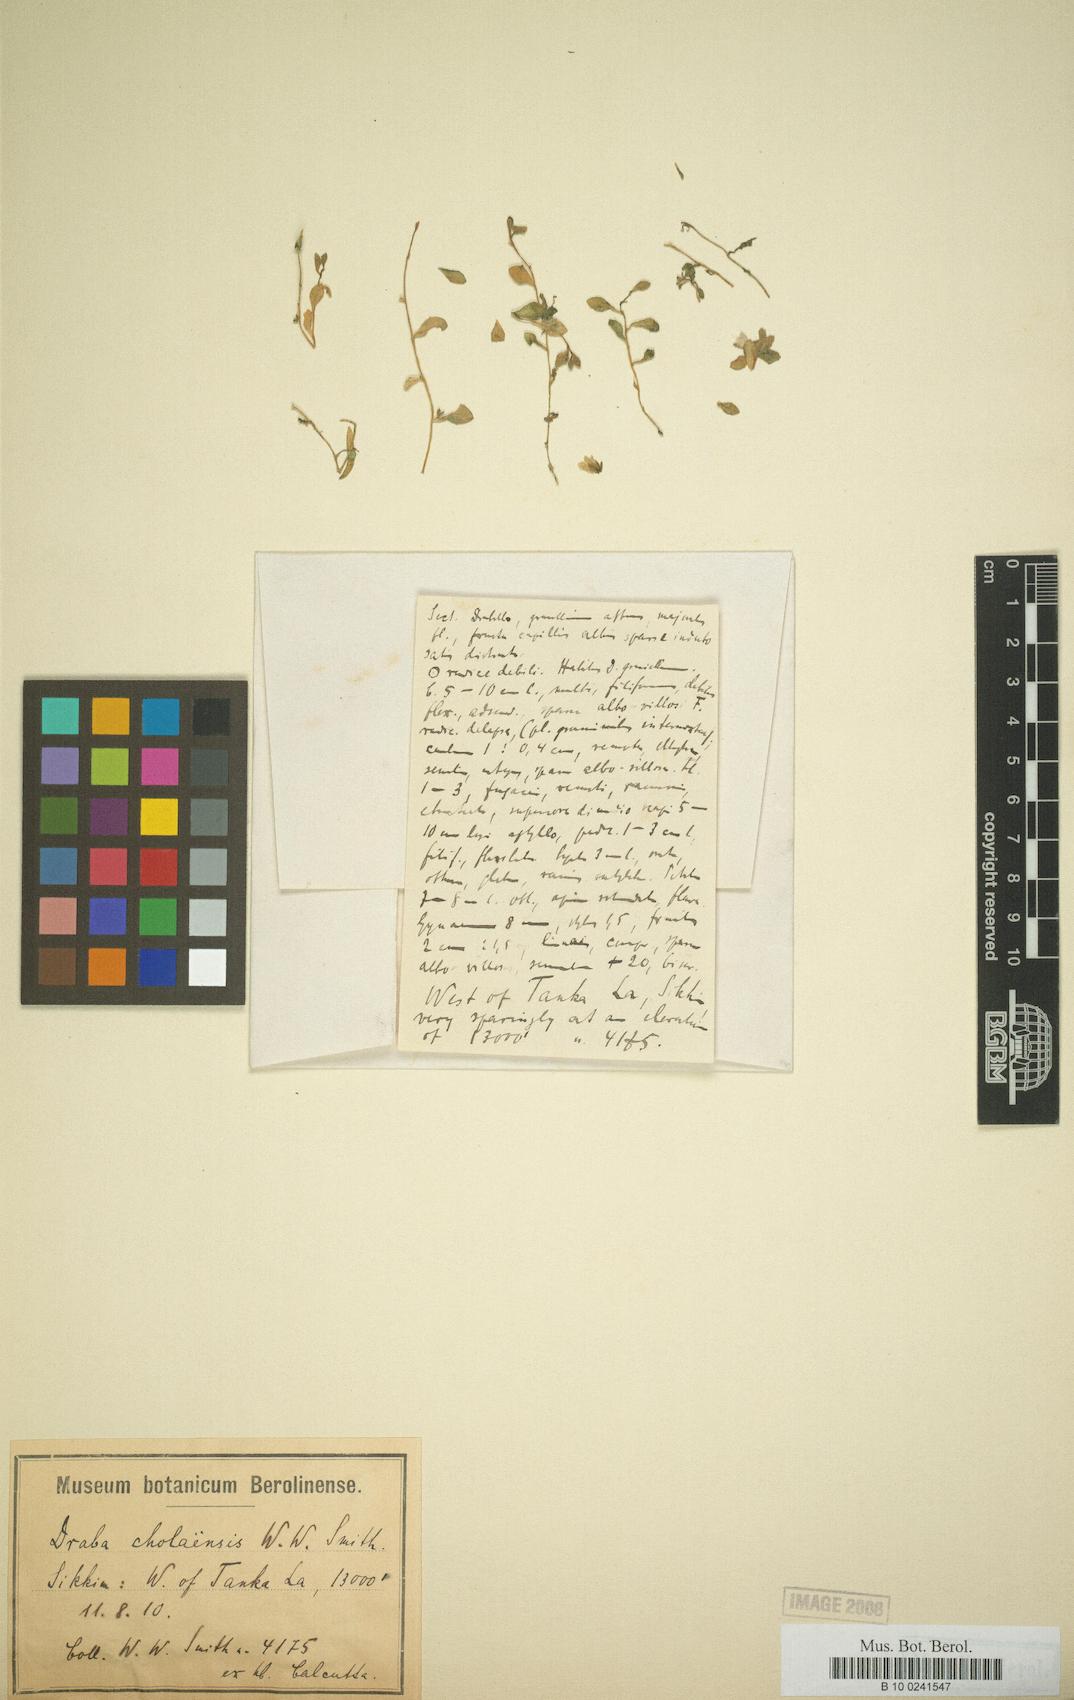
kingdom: Plantae
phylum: Tracheophyta
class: Magnoliopsida
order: Brassicales
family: Brassicaceae
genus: Draba
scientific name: Draba cholaensis
